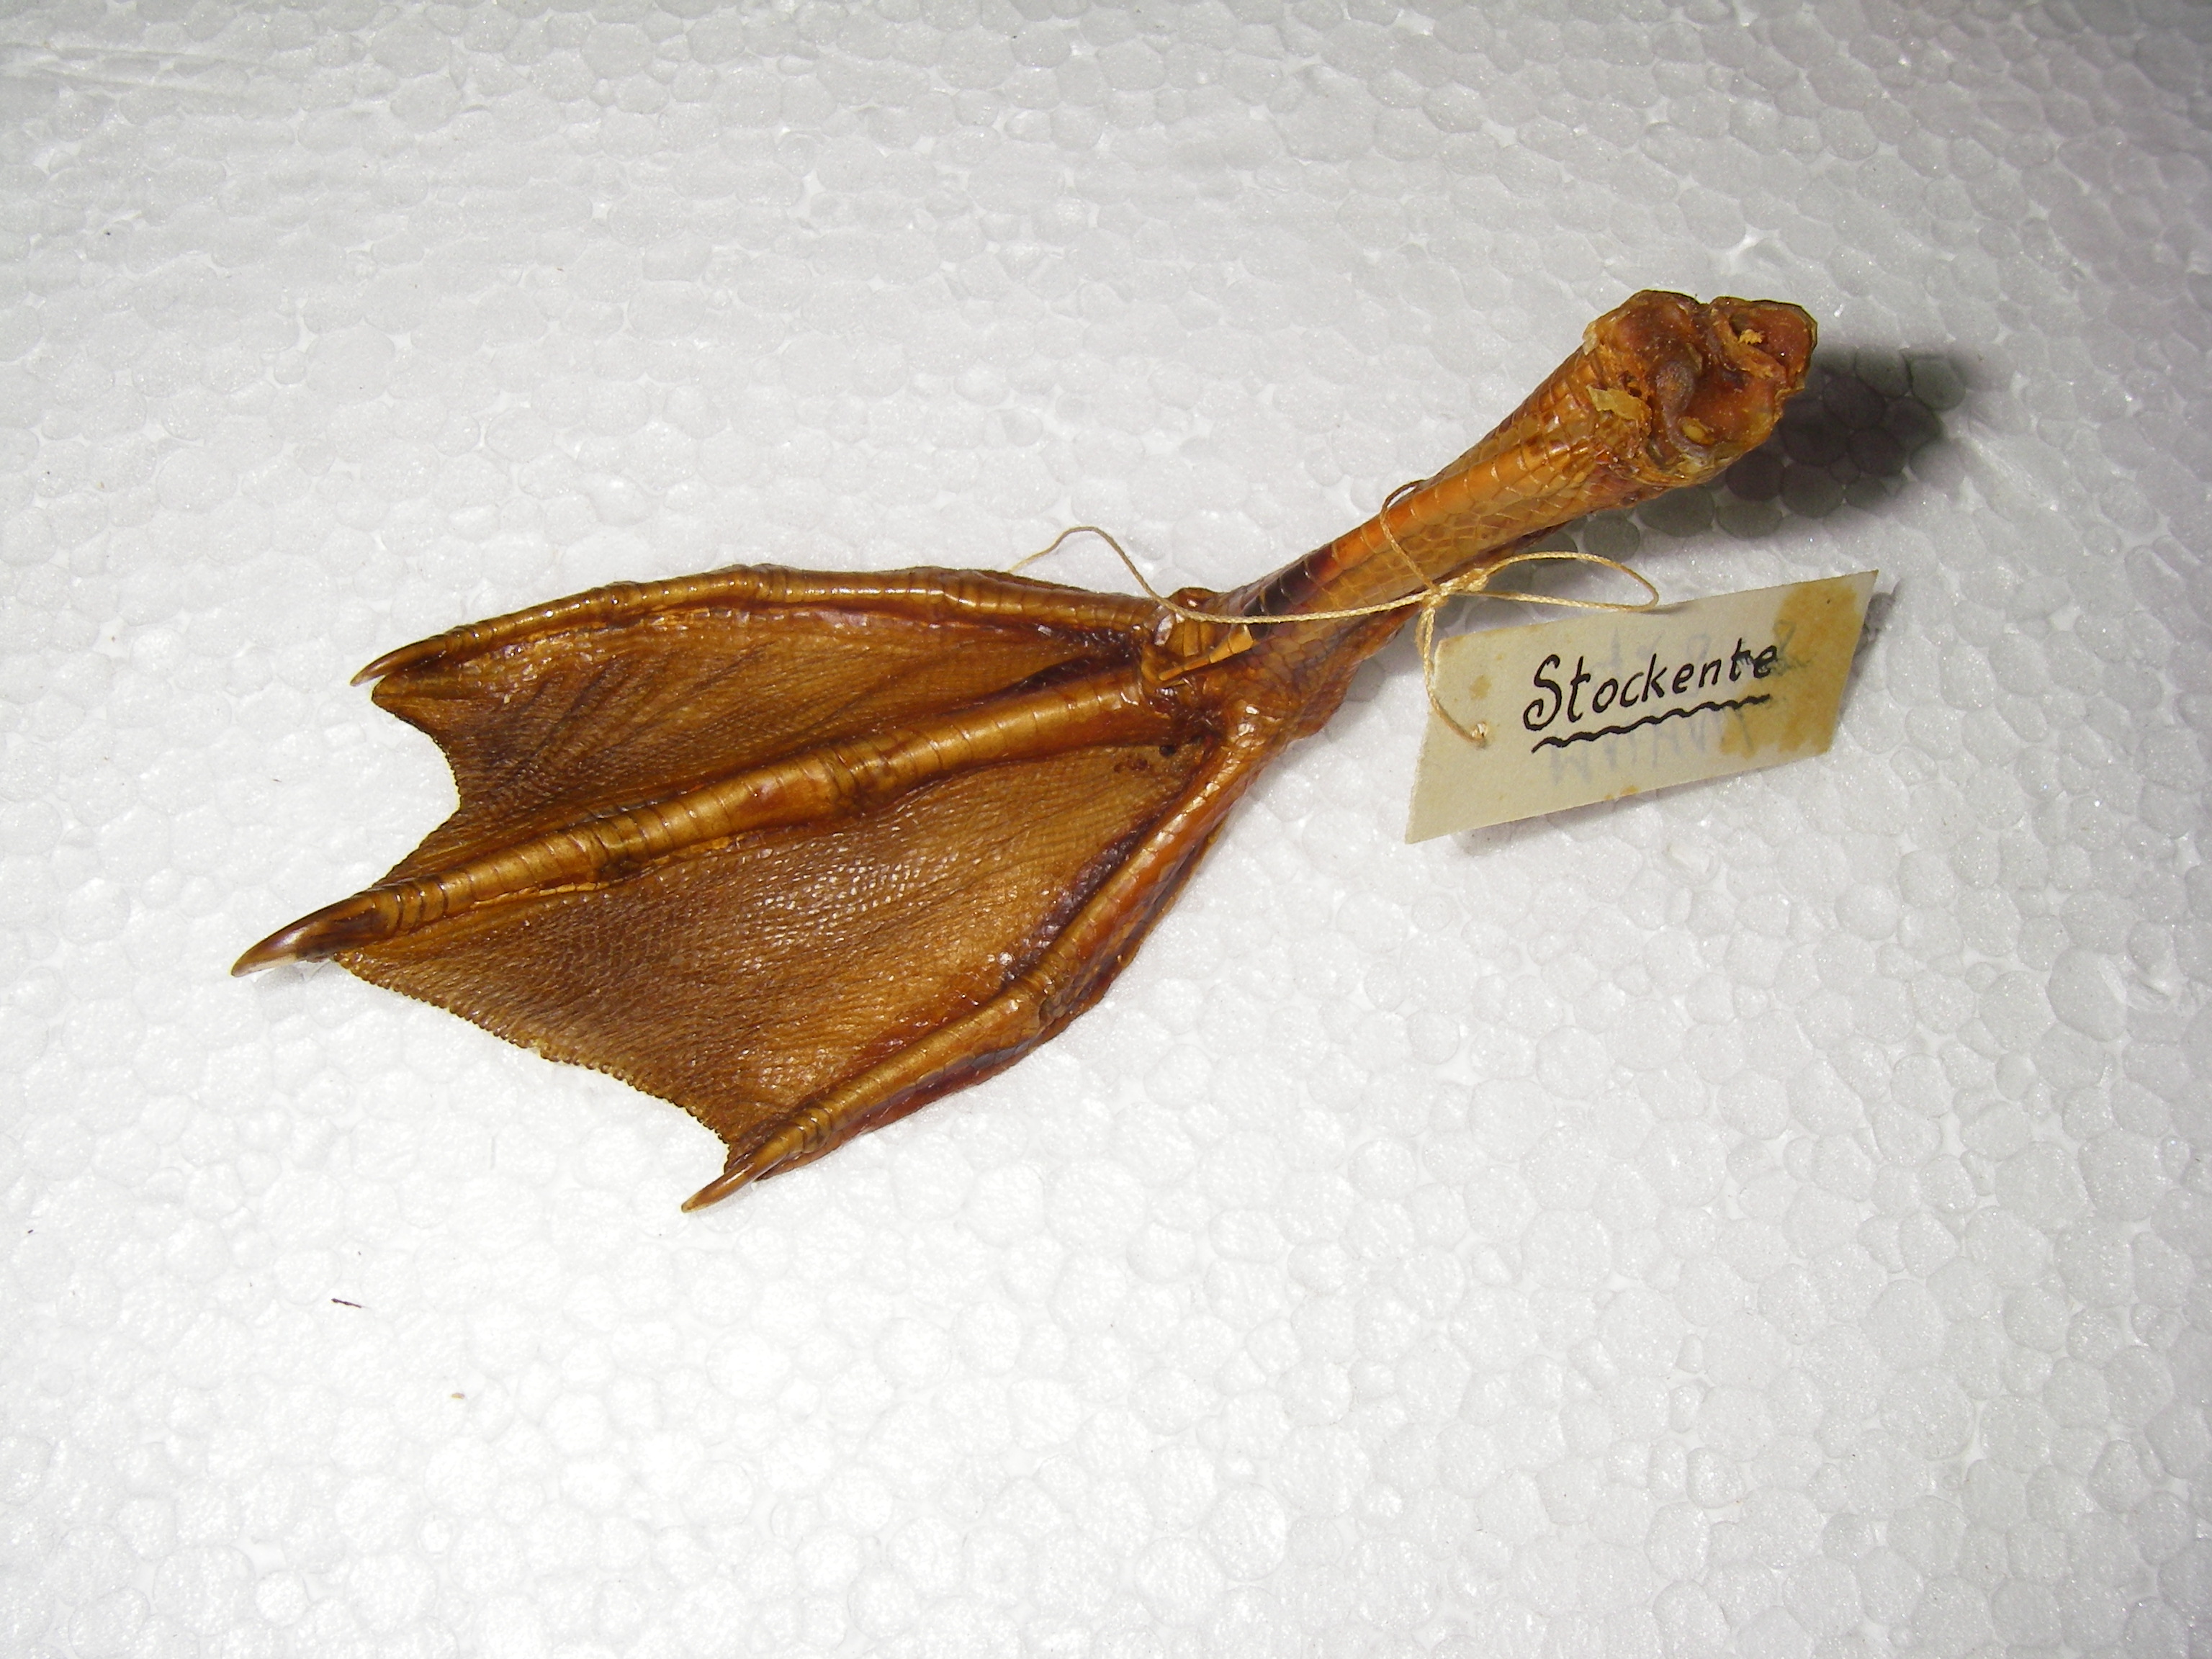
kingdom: Animalia
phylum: Chordata
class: Aves
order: Anseriformes
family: Anatidae
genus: Anas
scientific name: Anas platyrhynchos
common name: Mallard
